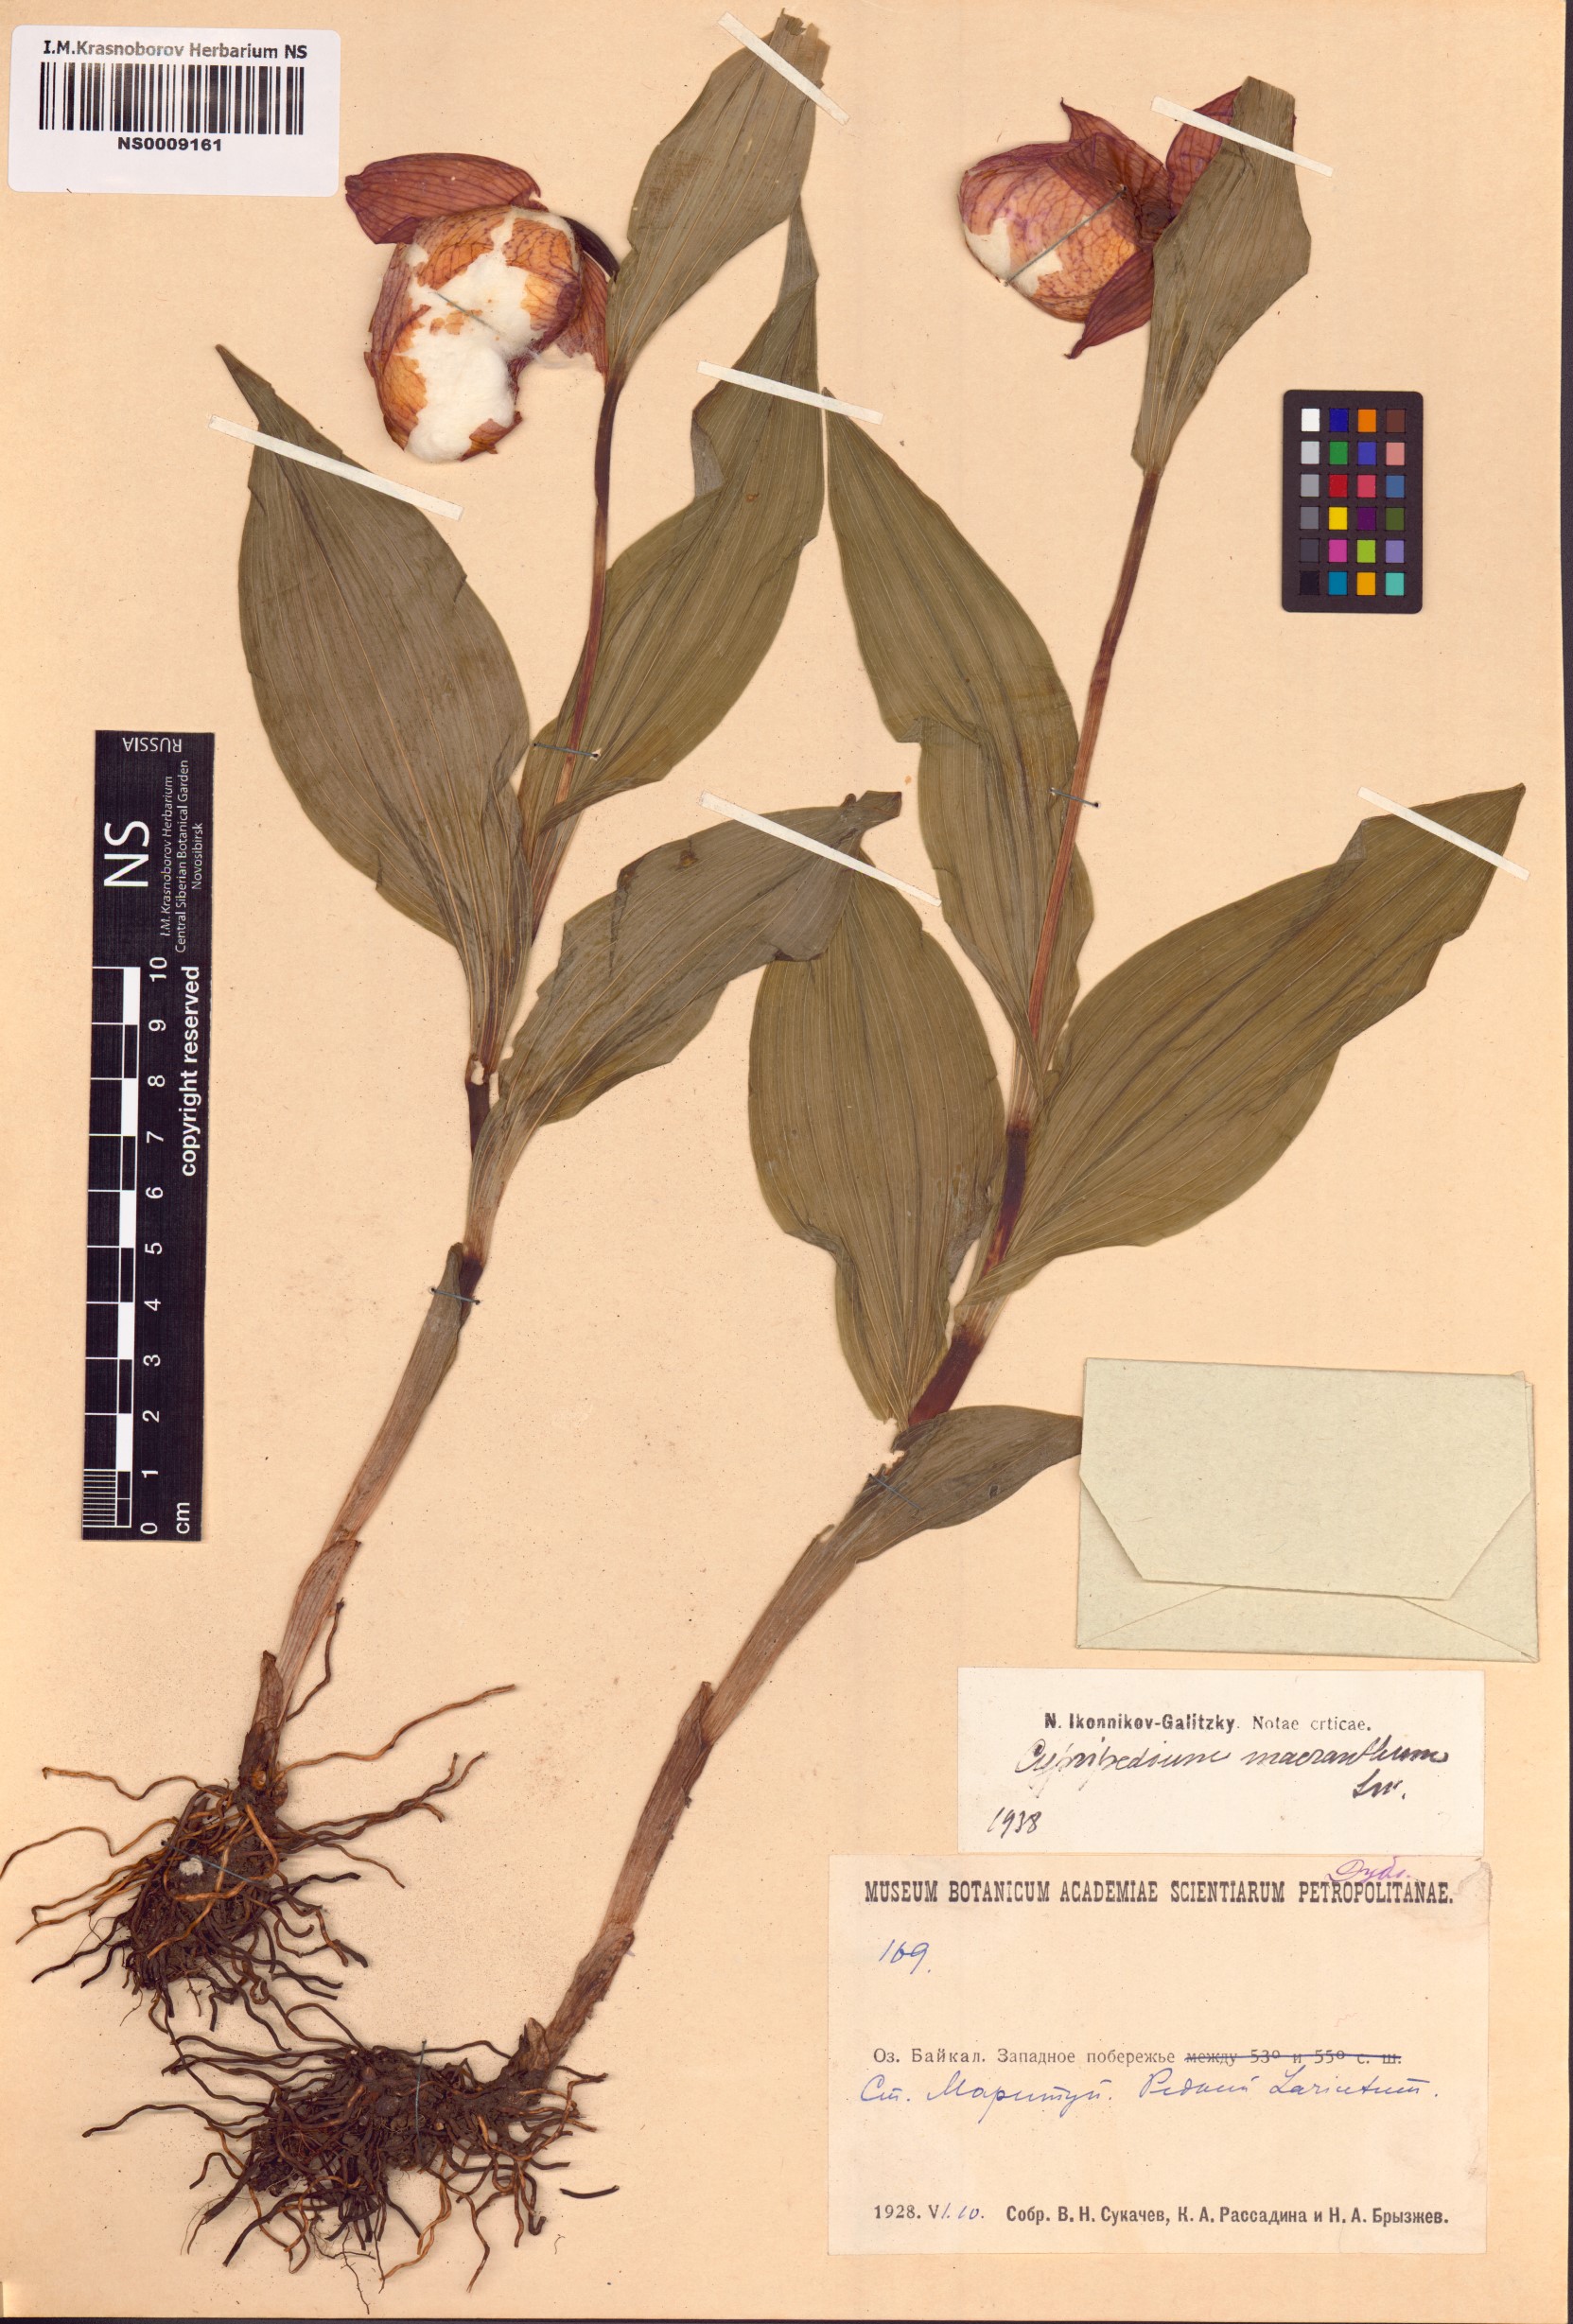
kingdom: Plantae
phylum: Tracheophyta
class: Liliopsida
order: Asparagales
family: Orchidaceae
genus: Cypripedium
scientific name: Cypripedium macranthos
